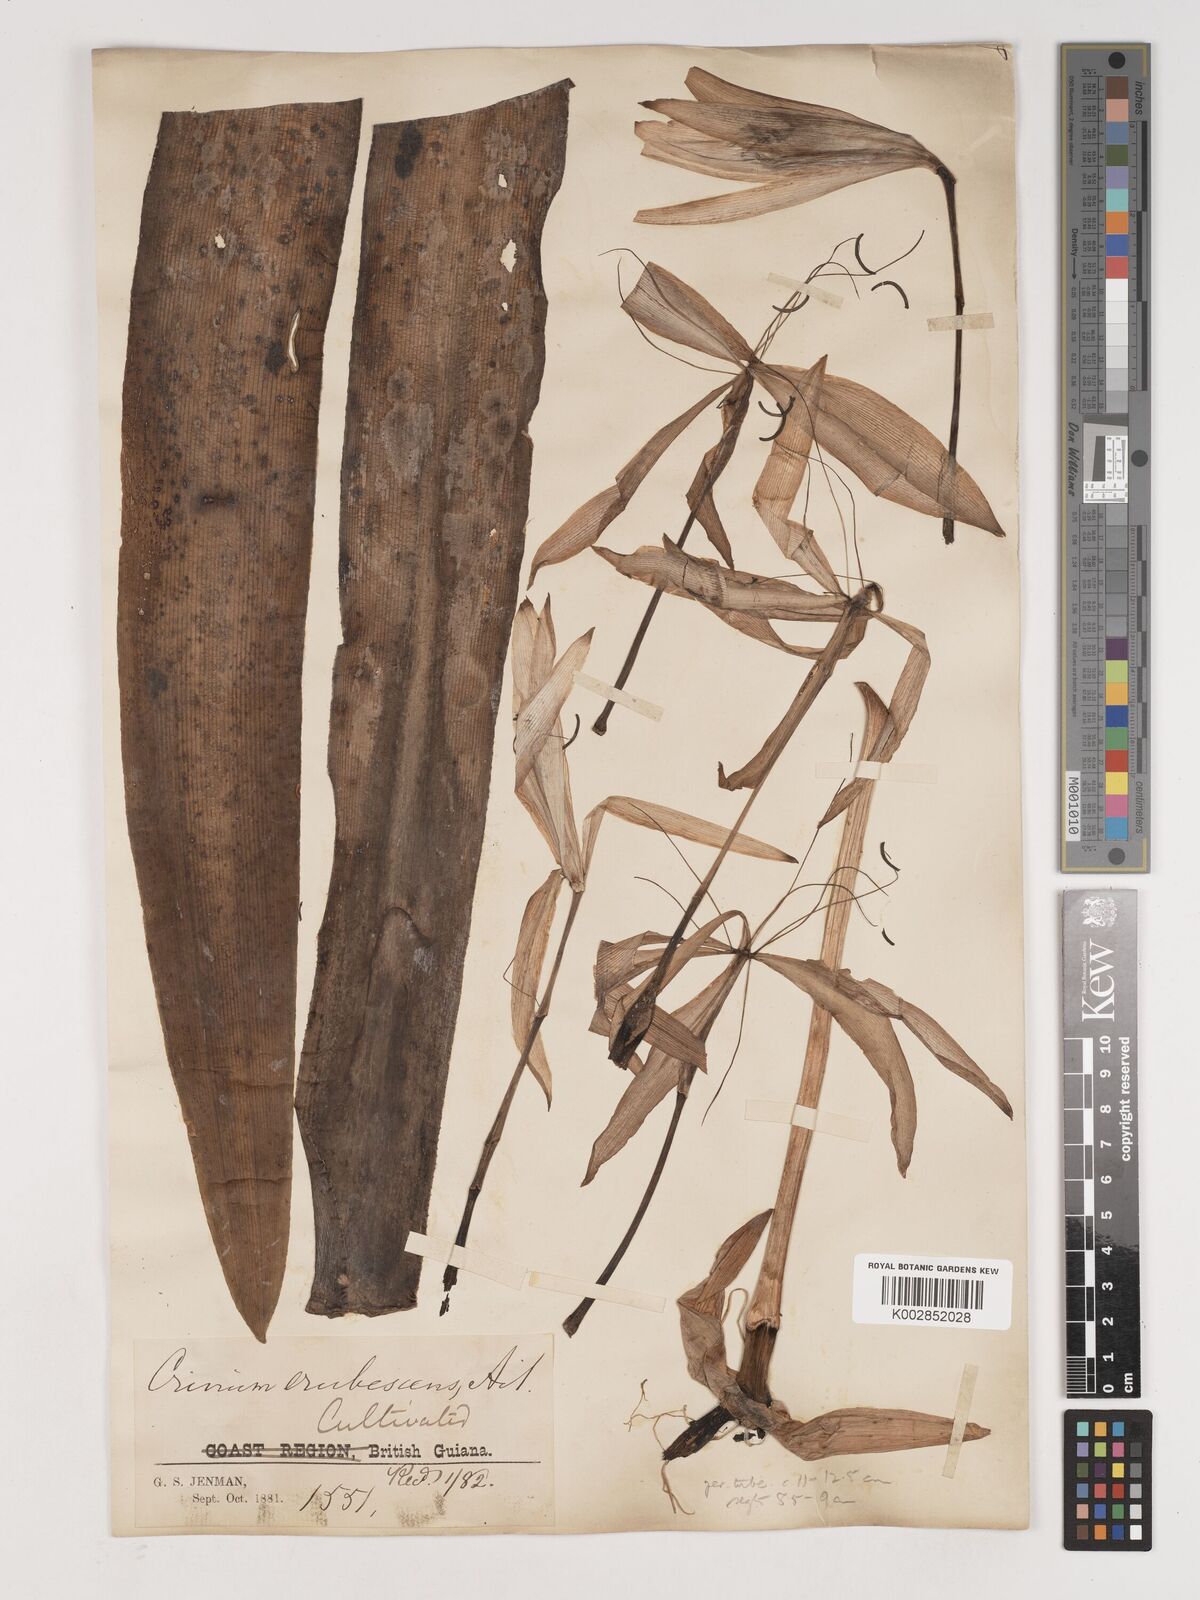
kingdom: Plantae
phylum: Tracheophyta
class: Liliopsida
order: Asparagales
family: Amaryllidaceae
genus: Crinum
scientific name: Crinum americanum
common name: Florida swamp-lily
